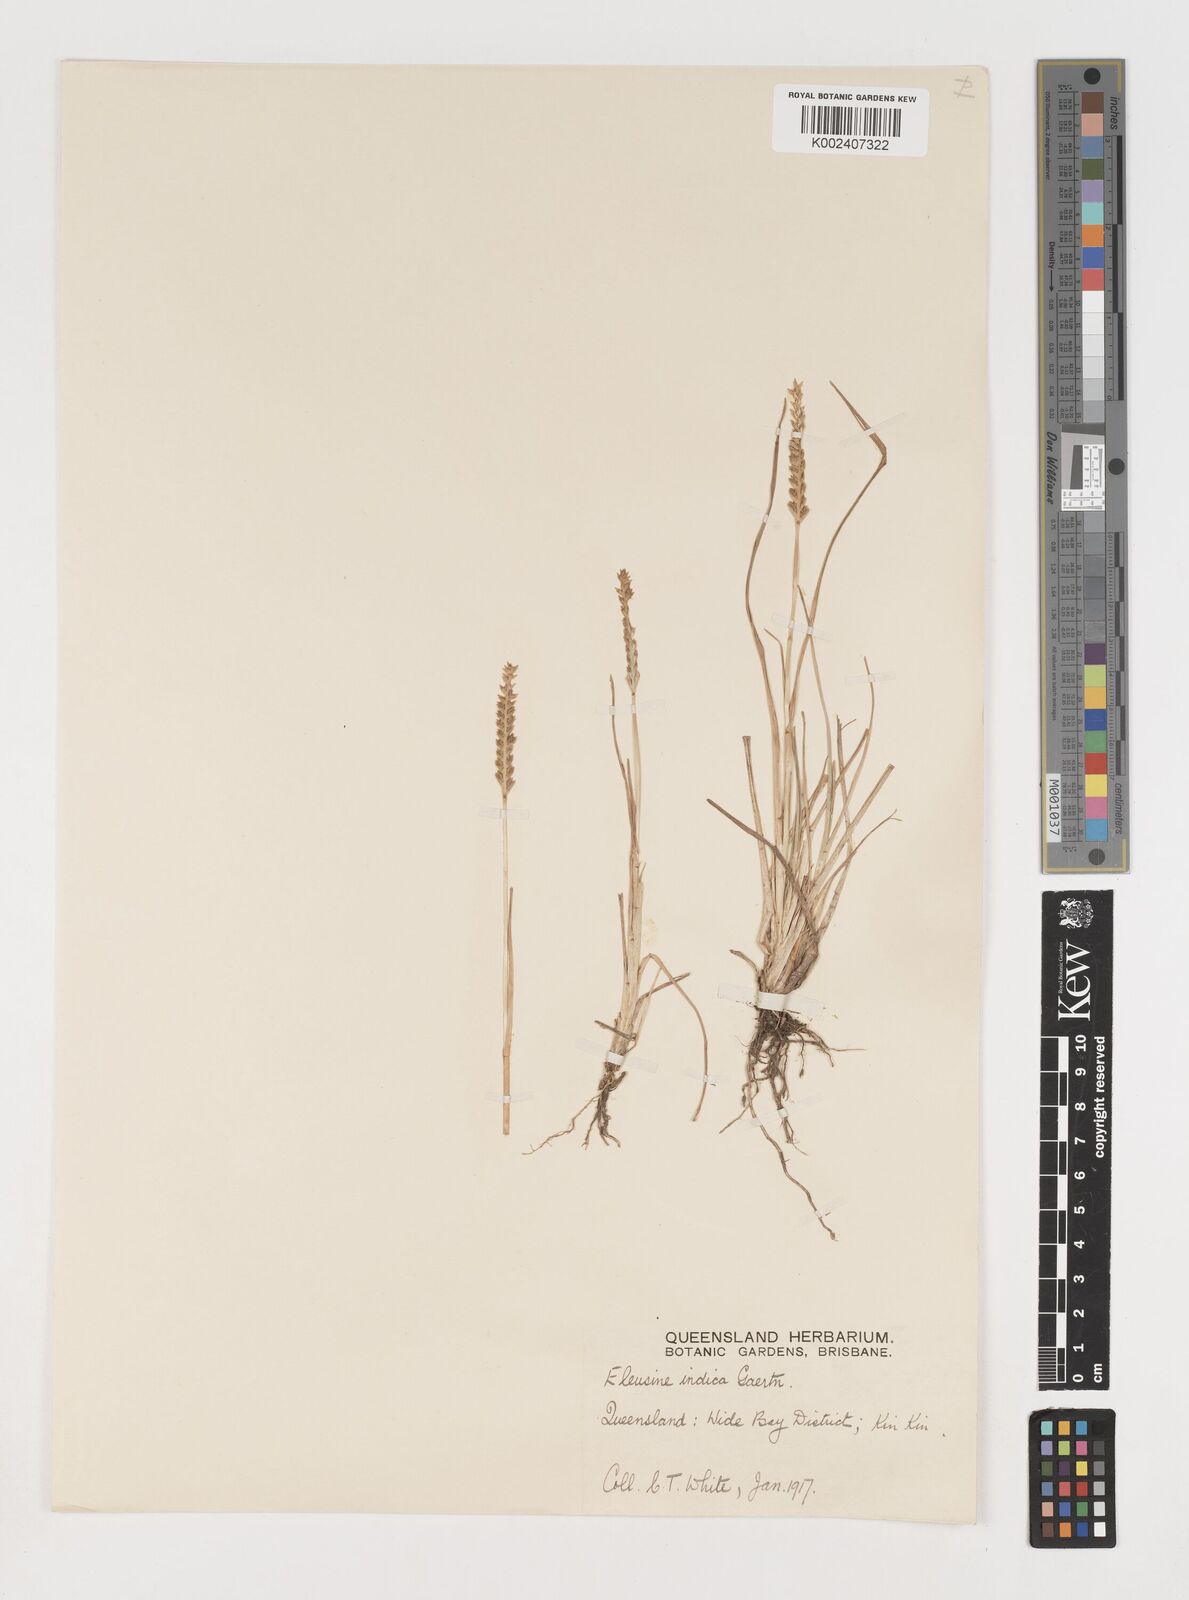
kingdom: Plantae
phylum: Tracheophyta
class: Liliopsida
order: Poales
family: Poaceae
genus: Eleusine
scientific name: Eleusine indica
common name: Yard-grass
